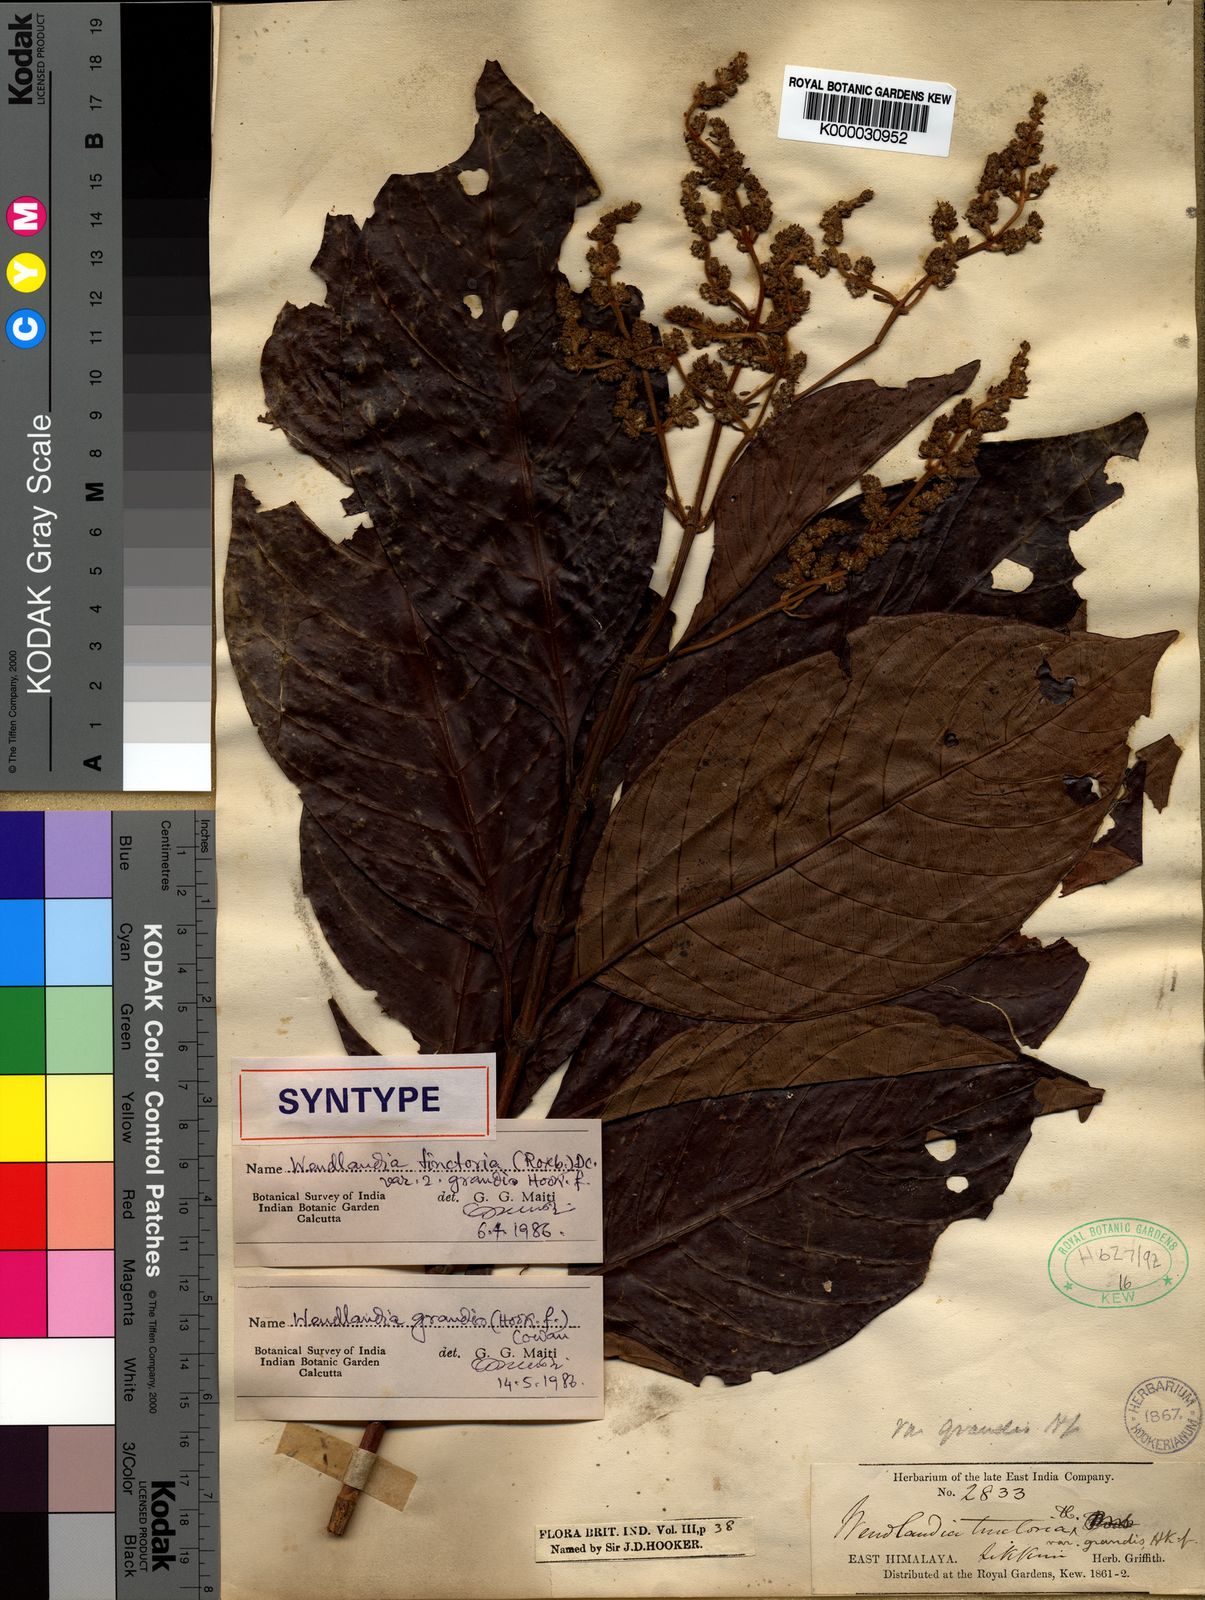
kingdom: Plantae
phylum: Tracheophyta
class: Magnoliopsida
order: Gentianales
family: Rubiaceae
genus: Wendlandia
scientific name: Wendlandia budleioides
